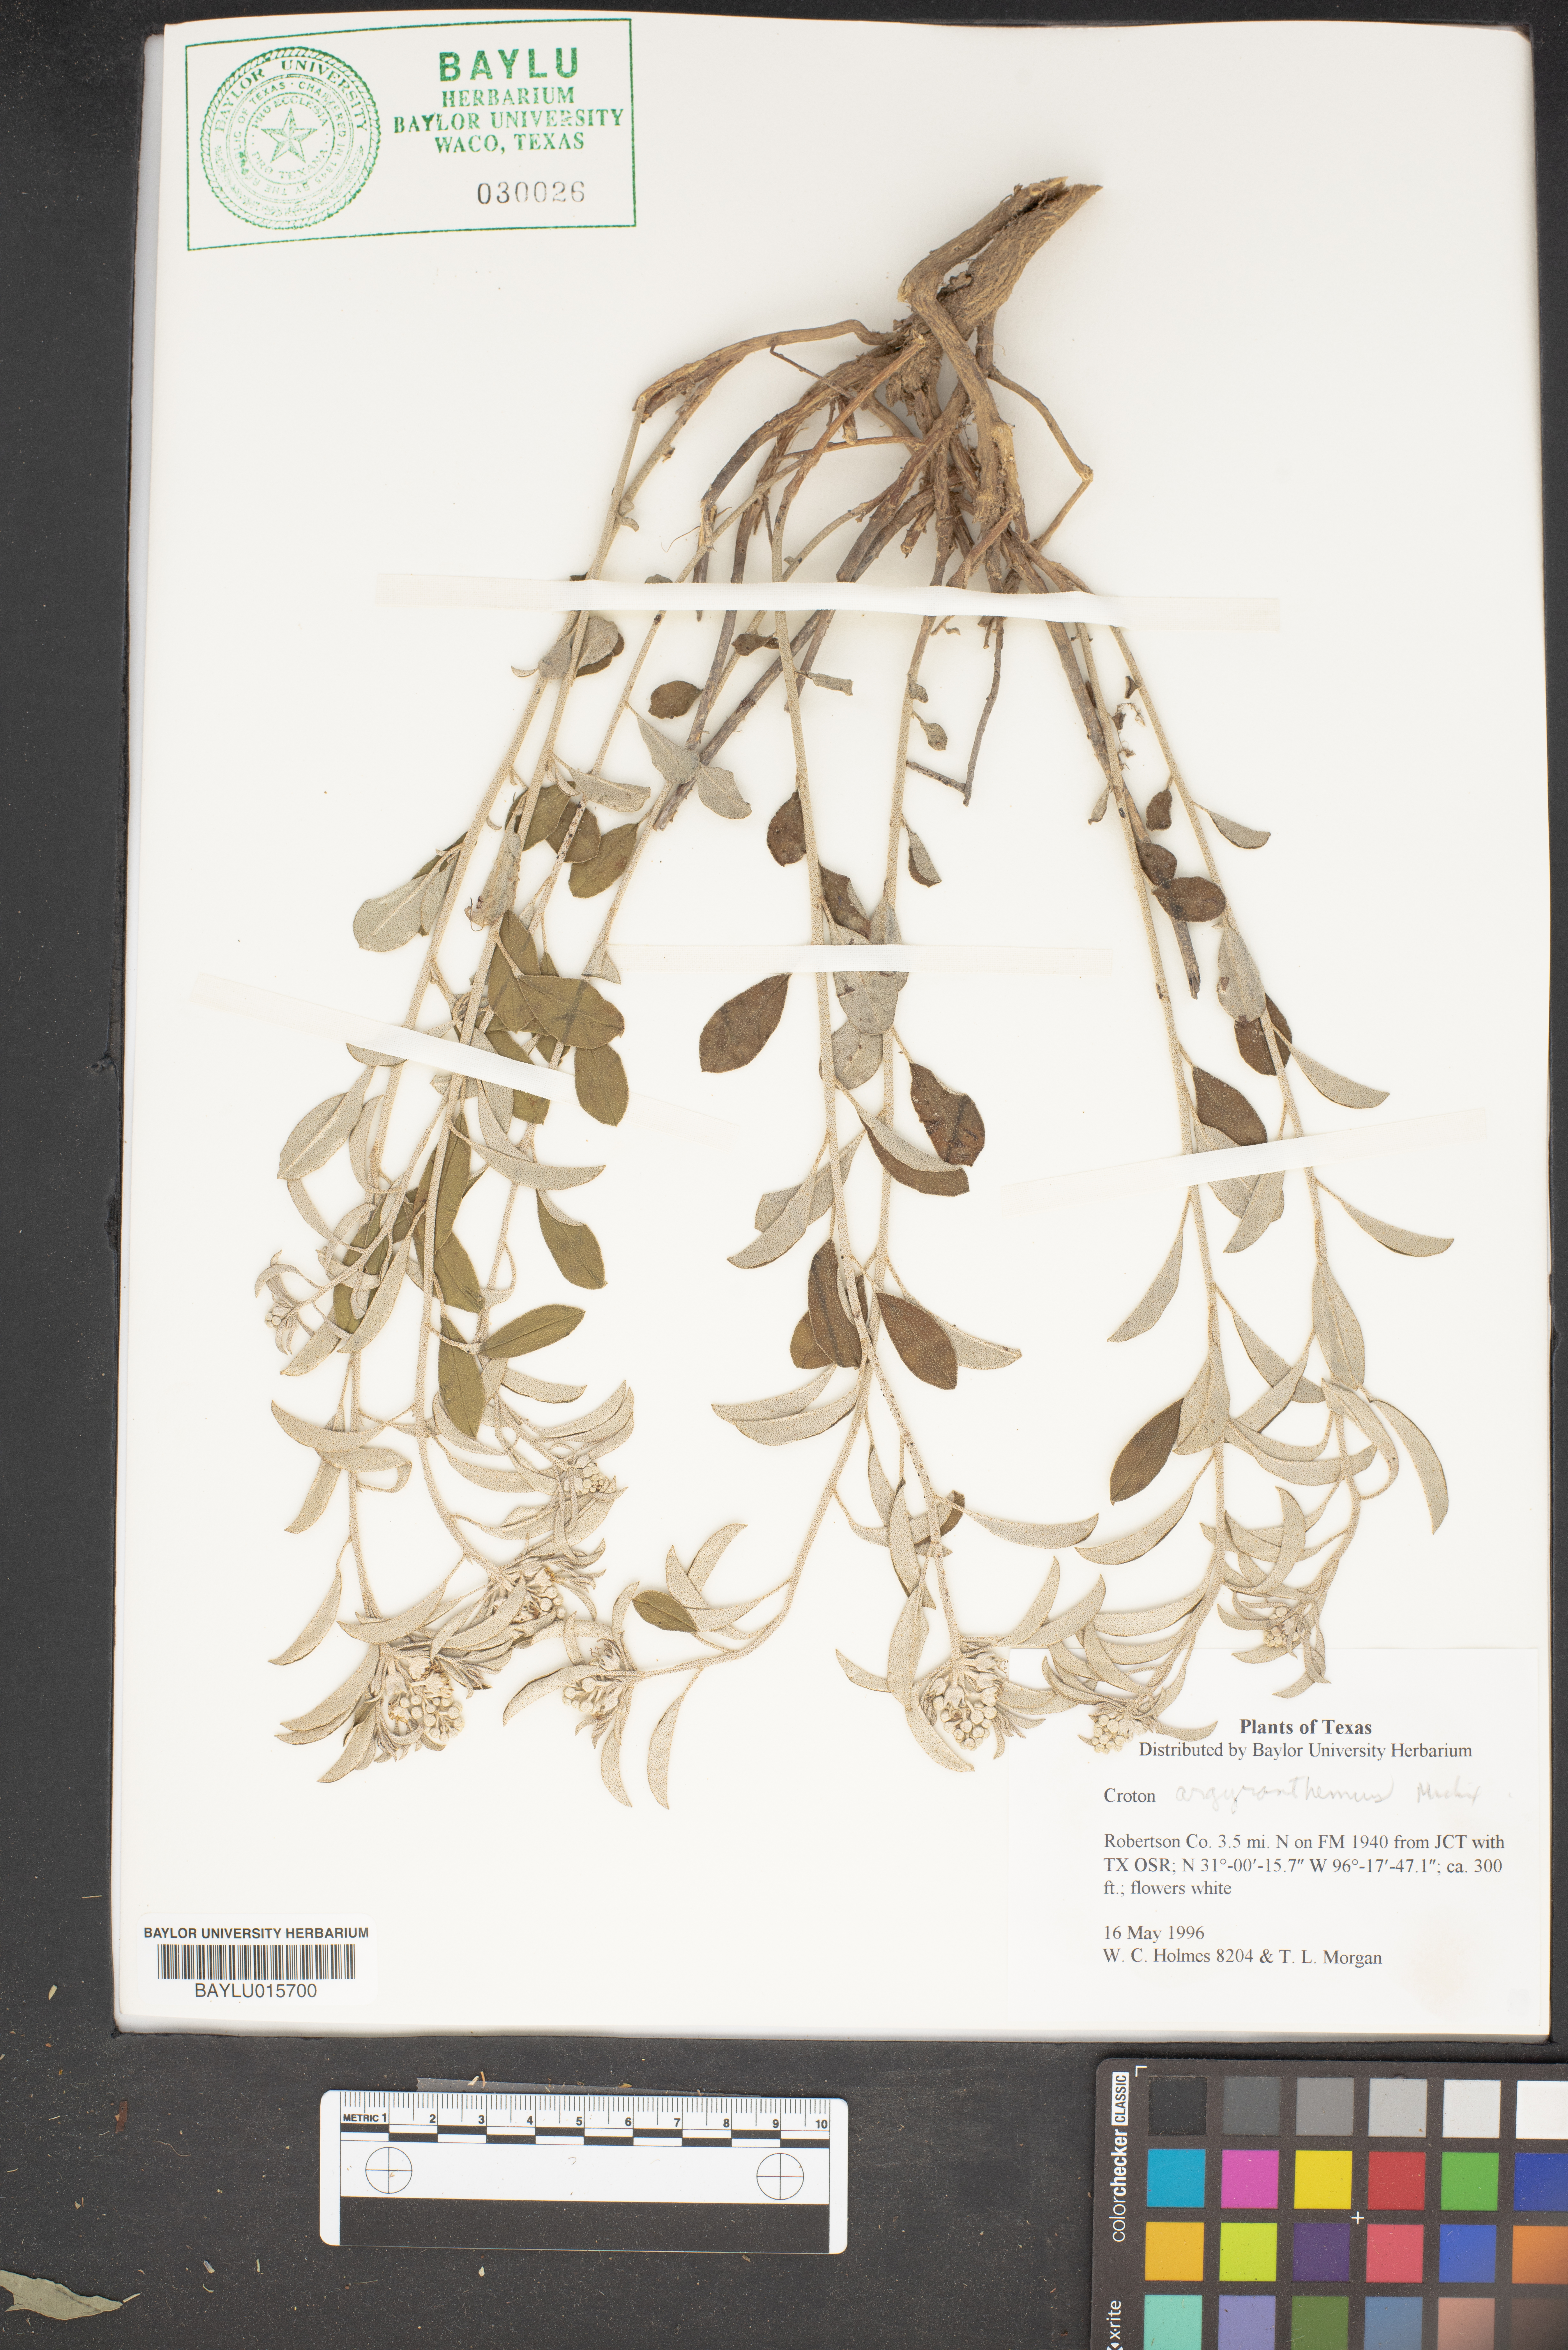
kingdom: Plantae
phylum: Tracheophyta
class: Magnoliopsida
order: Malpighiales
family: Euphorbiaceae
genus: Croton
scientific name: Croton argyranthemus
